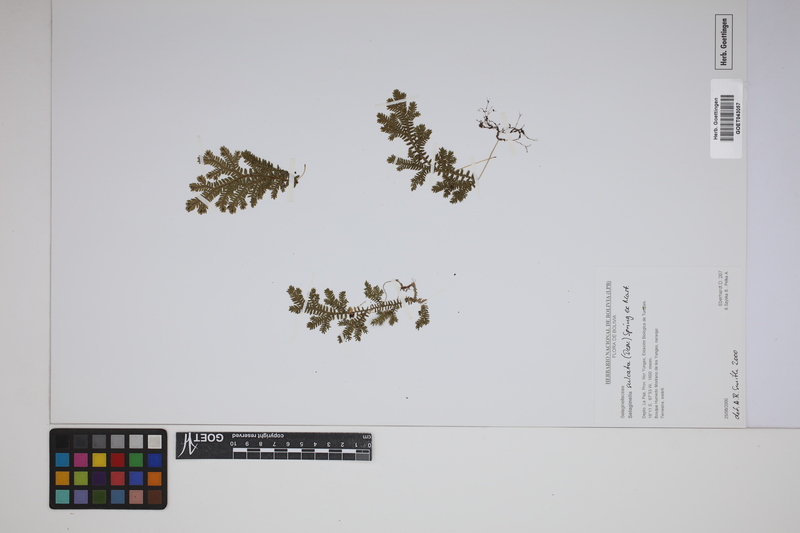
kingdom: Plantae
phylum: Tracheophyta
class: Lycopodiopsida
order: Selaginellales
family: Selaginellaceae
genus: Selaginella
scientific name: Selaginella sulcata
